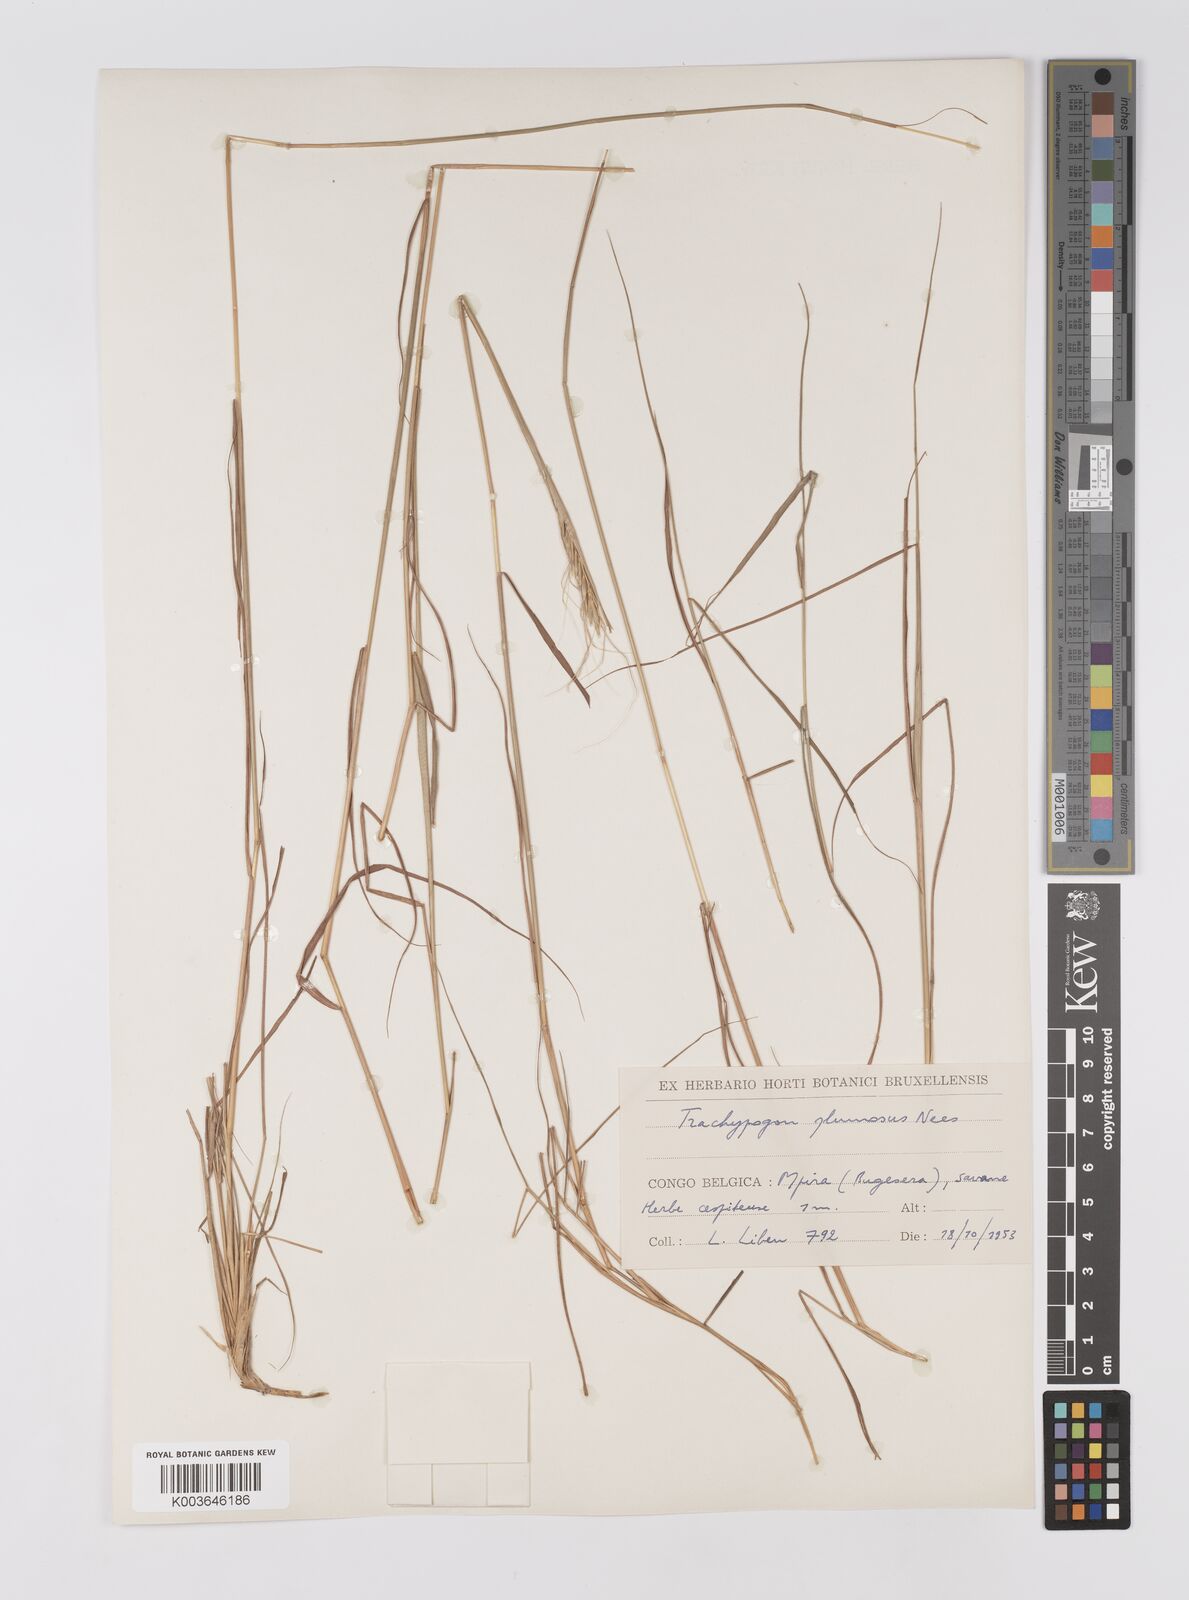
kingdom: Plantae
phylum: Tracheophyta
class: Liliopsida
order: Poales
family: Poaceae
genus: Trachypogon
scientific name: Trachypogon spicatus
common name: Crinkle-awn
